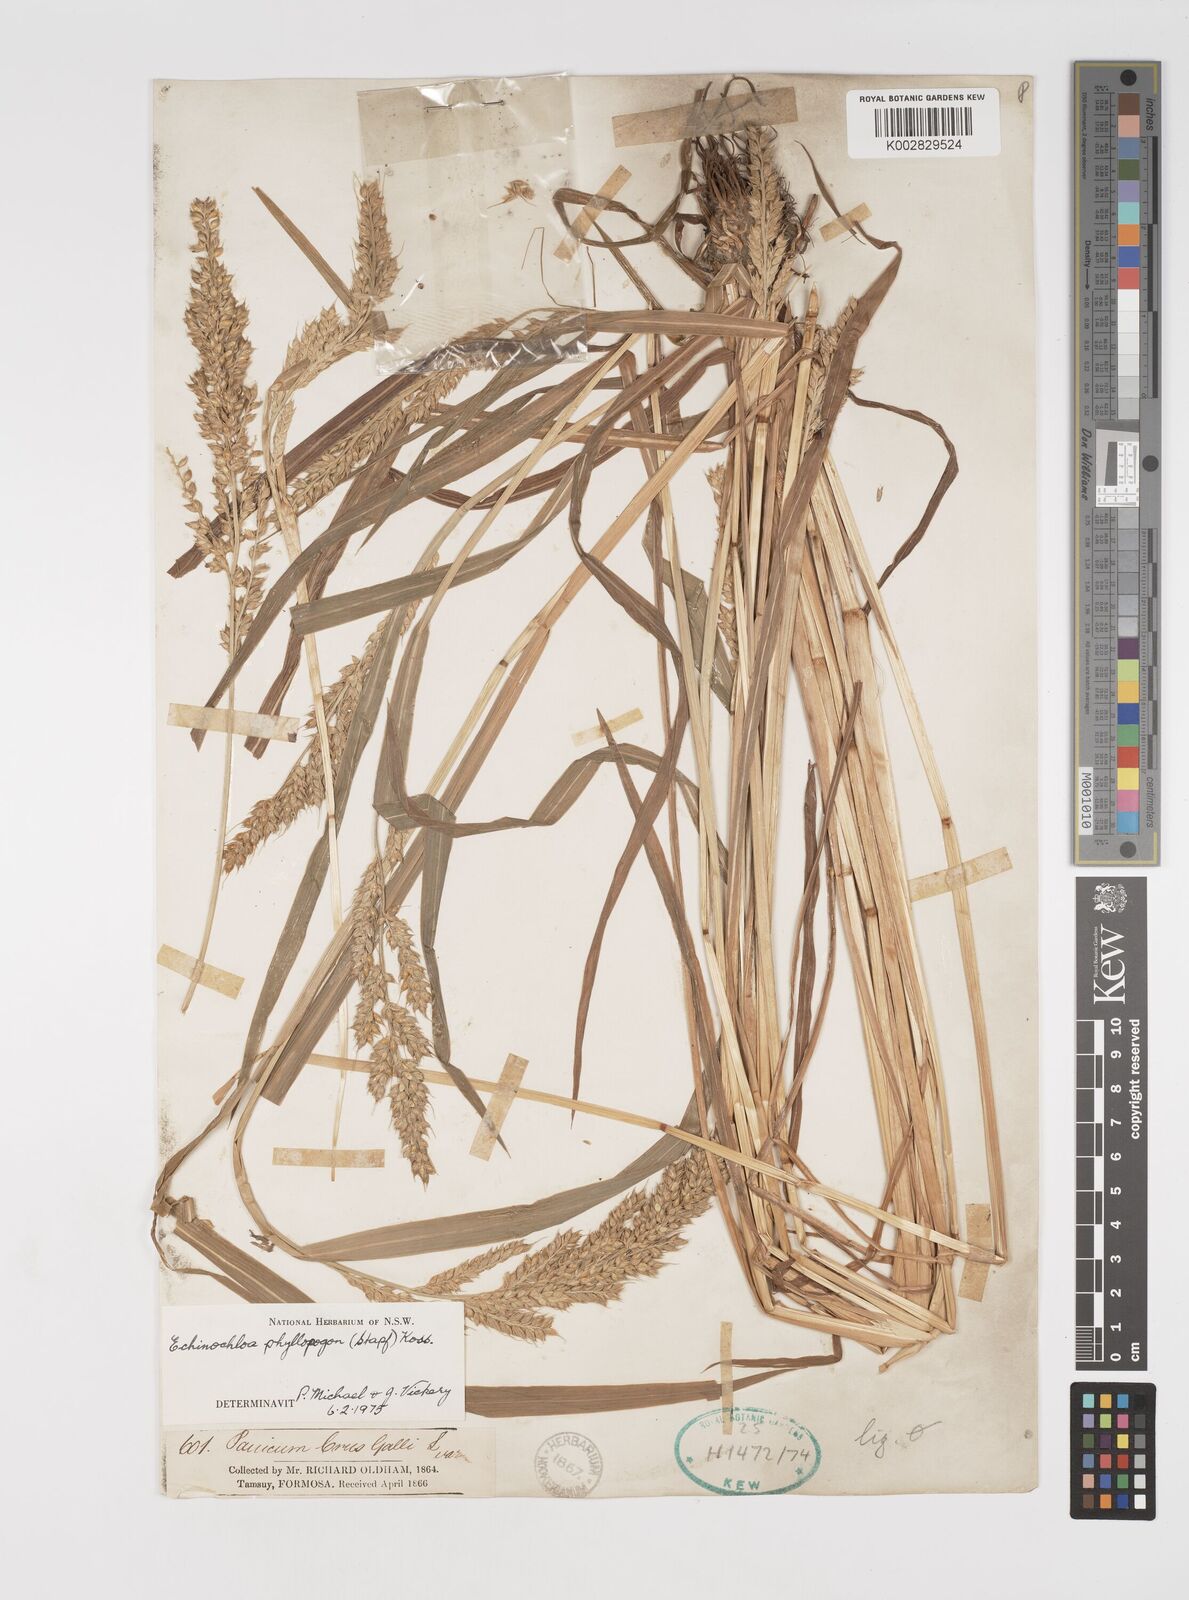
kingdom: Plantae
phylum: Tracheophyta
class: Liliopsida
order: Poales
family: Poaceae
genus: Echinochloa
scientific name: Echinochloa oryzoides
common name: Early water grass
